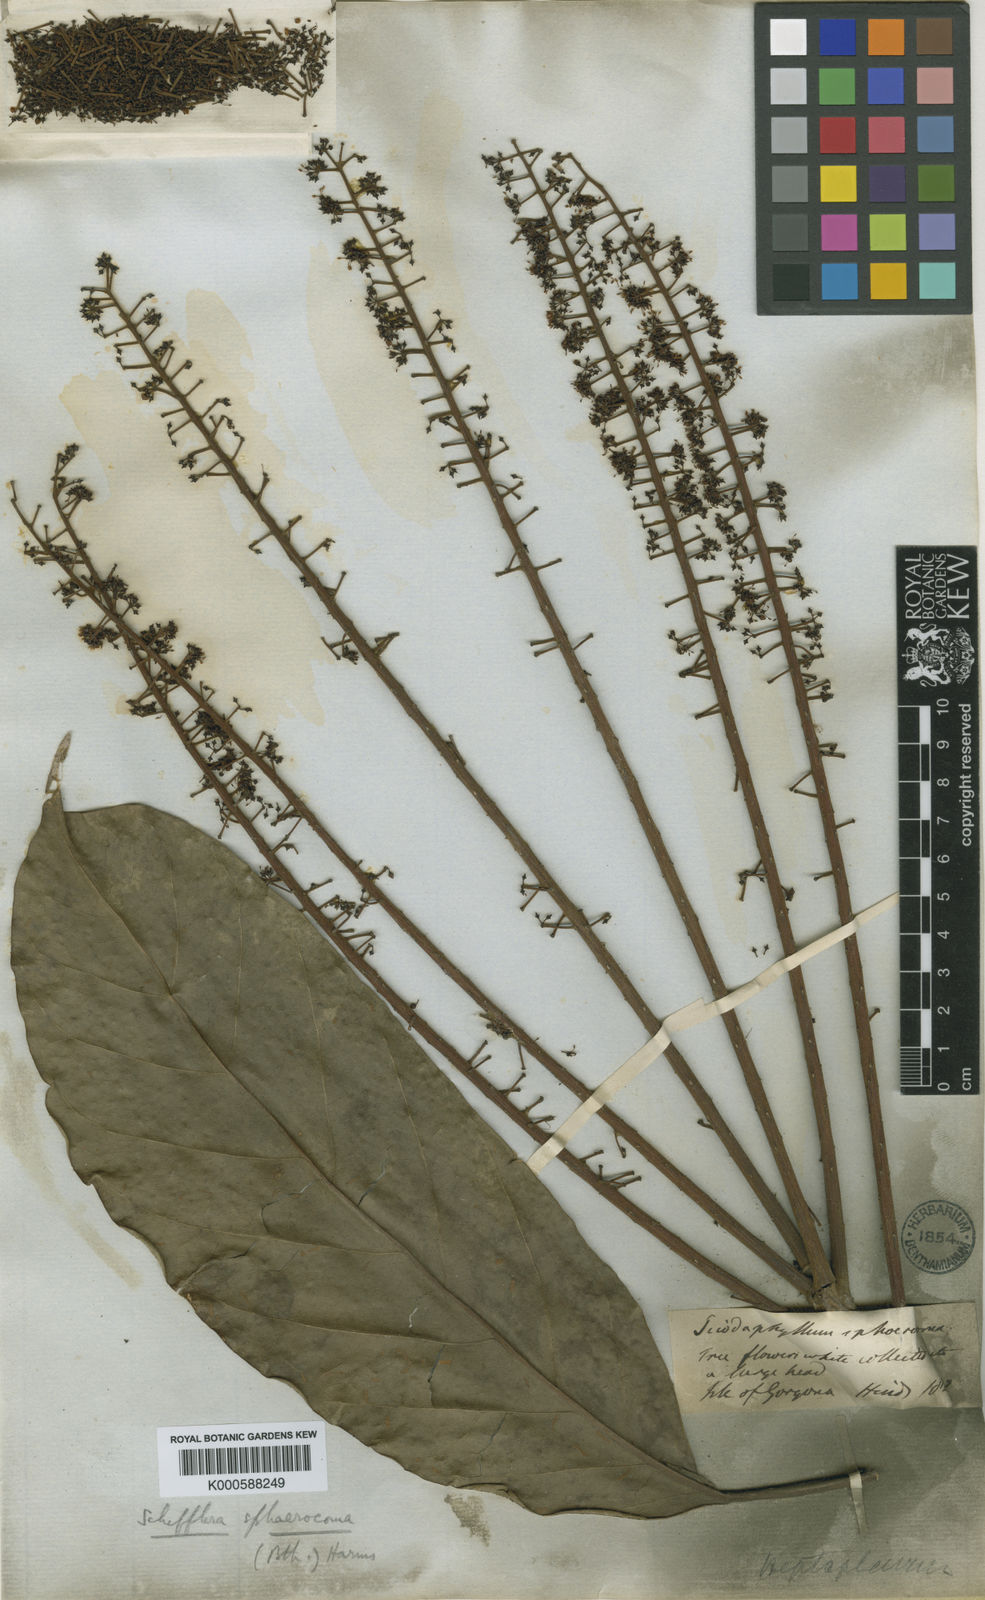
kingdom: Plantae
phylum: Tracheophyta
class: Magnoliopsida
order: Apiales
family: Araliaceae
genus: Sciodaphyllum
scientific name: Sciodaphyllum sphaerocoma
